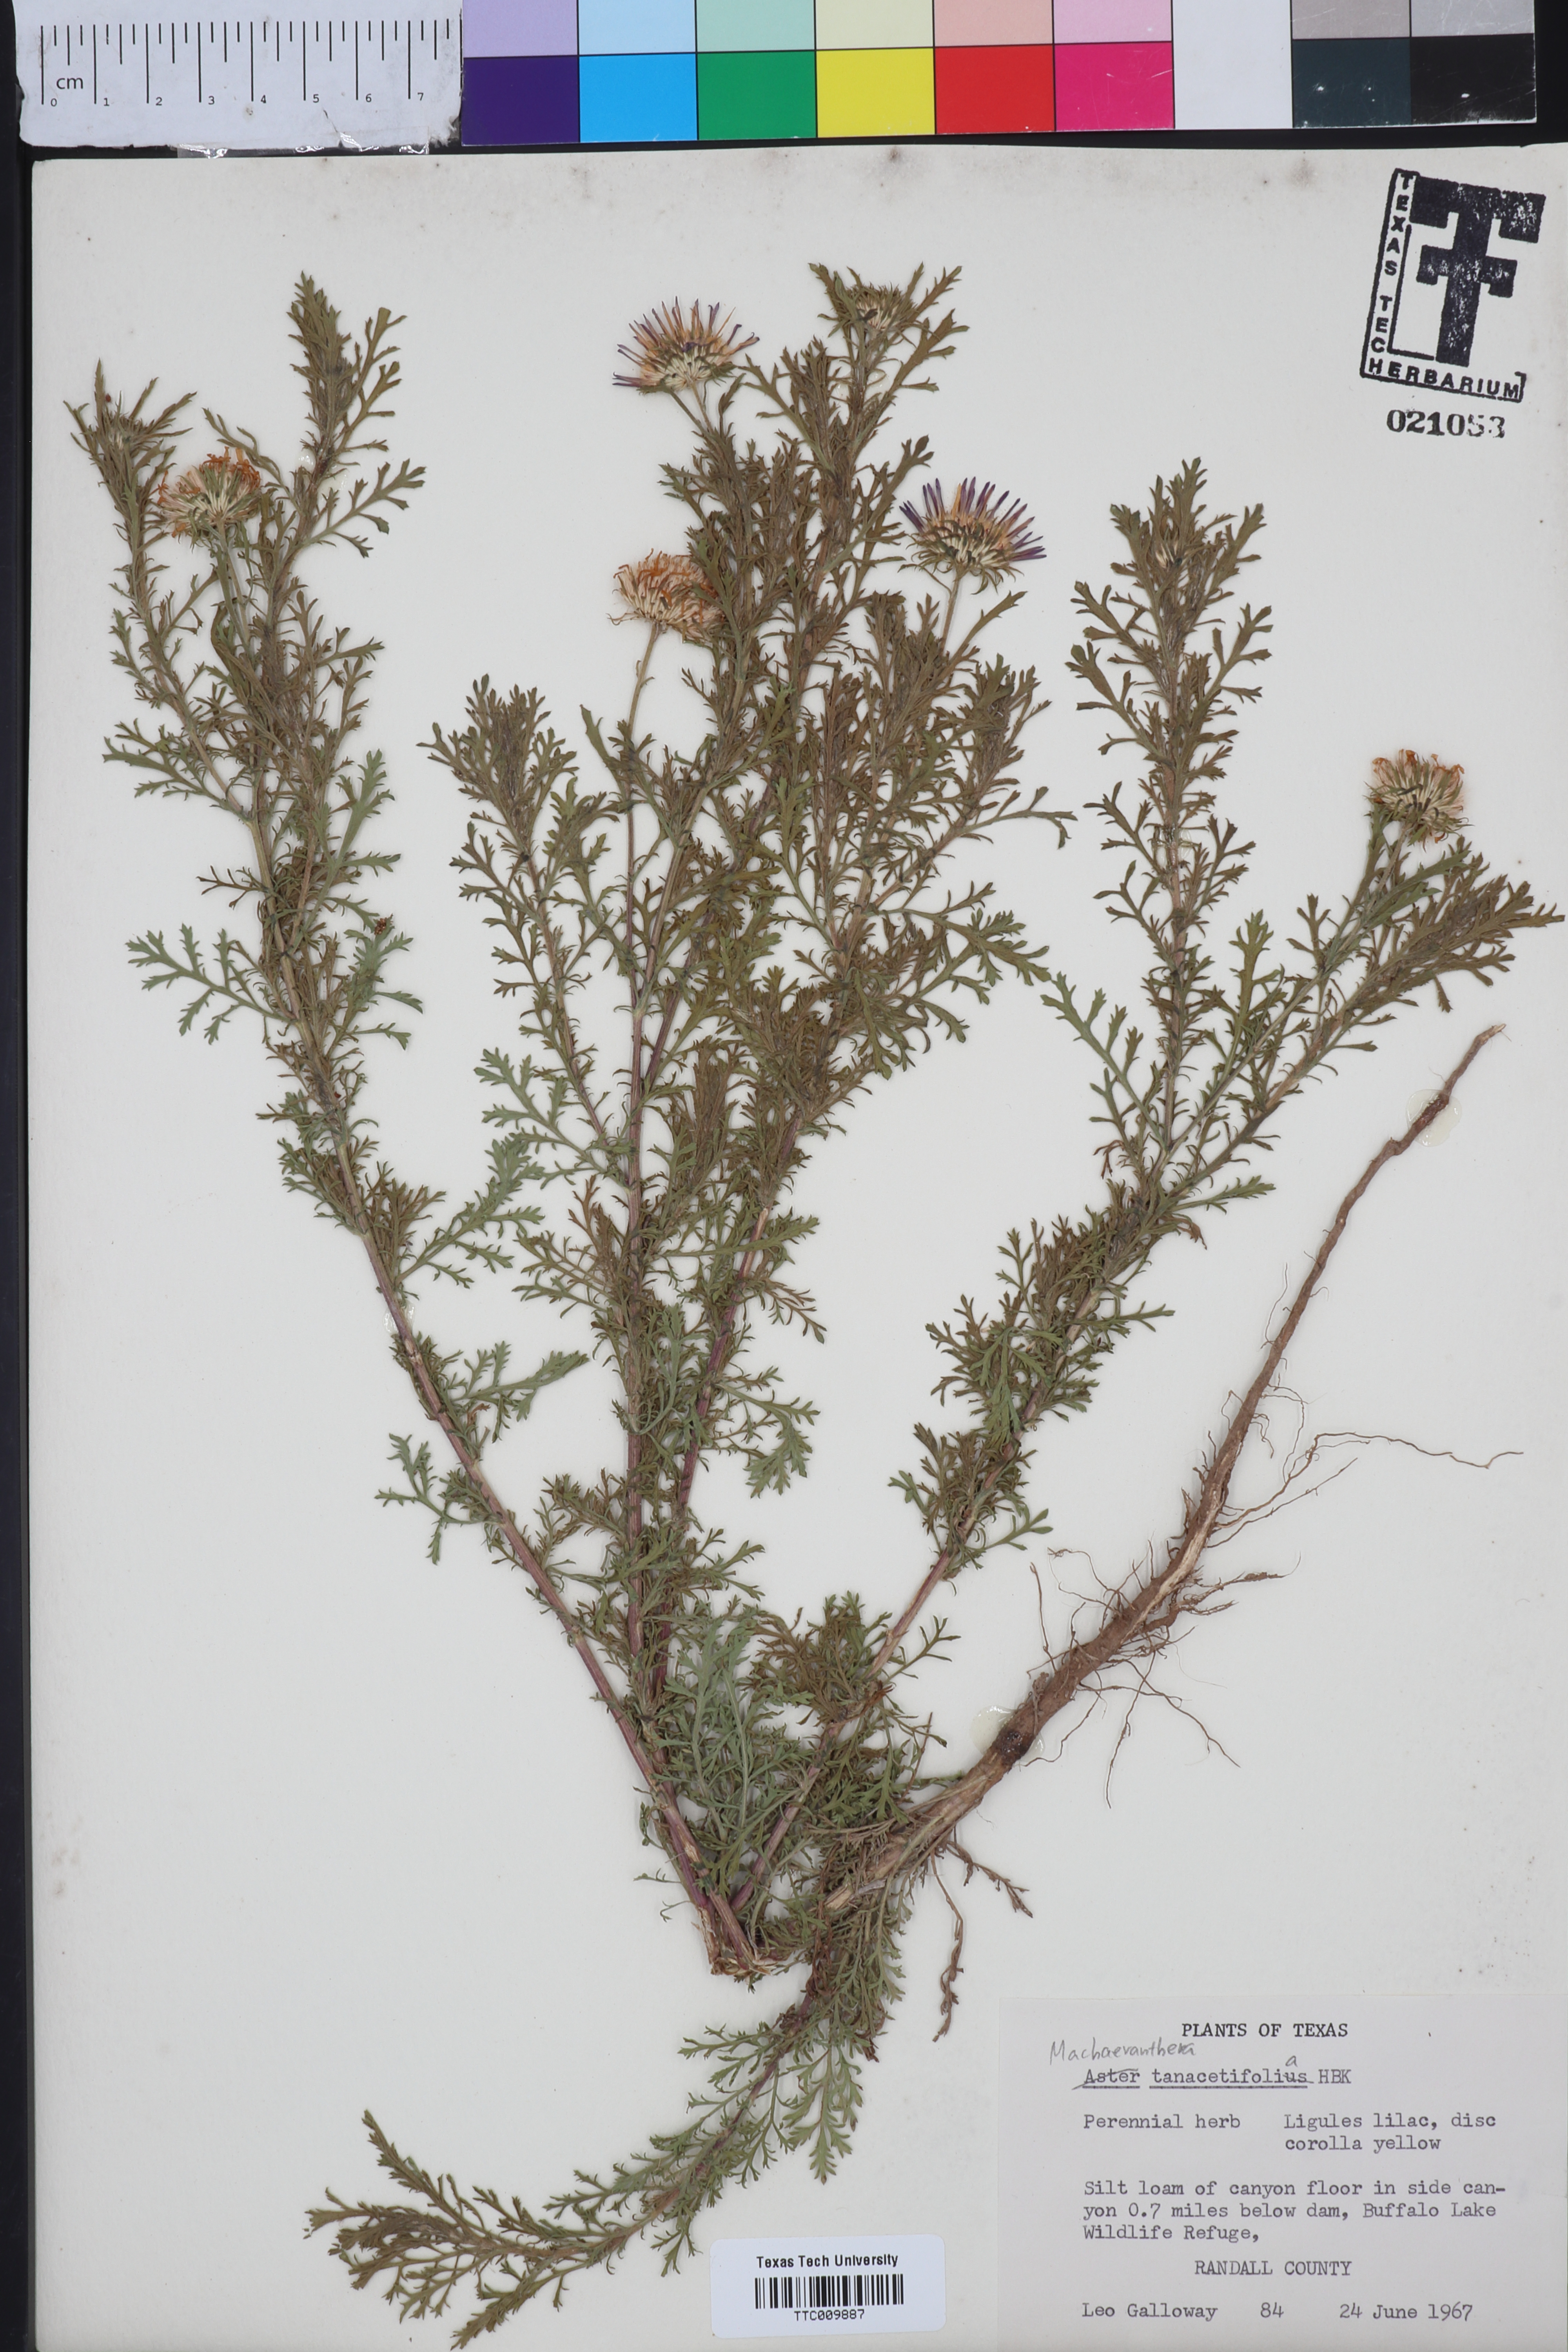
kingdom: Plantae
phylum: Tracheophyta
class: Magnoliopsida
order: Asterales
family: Asteraceae
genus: Machaeranthera
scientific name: Machaeranthera tanacetifolia
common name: Tansy-aster
